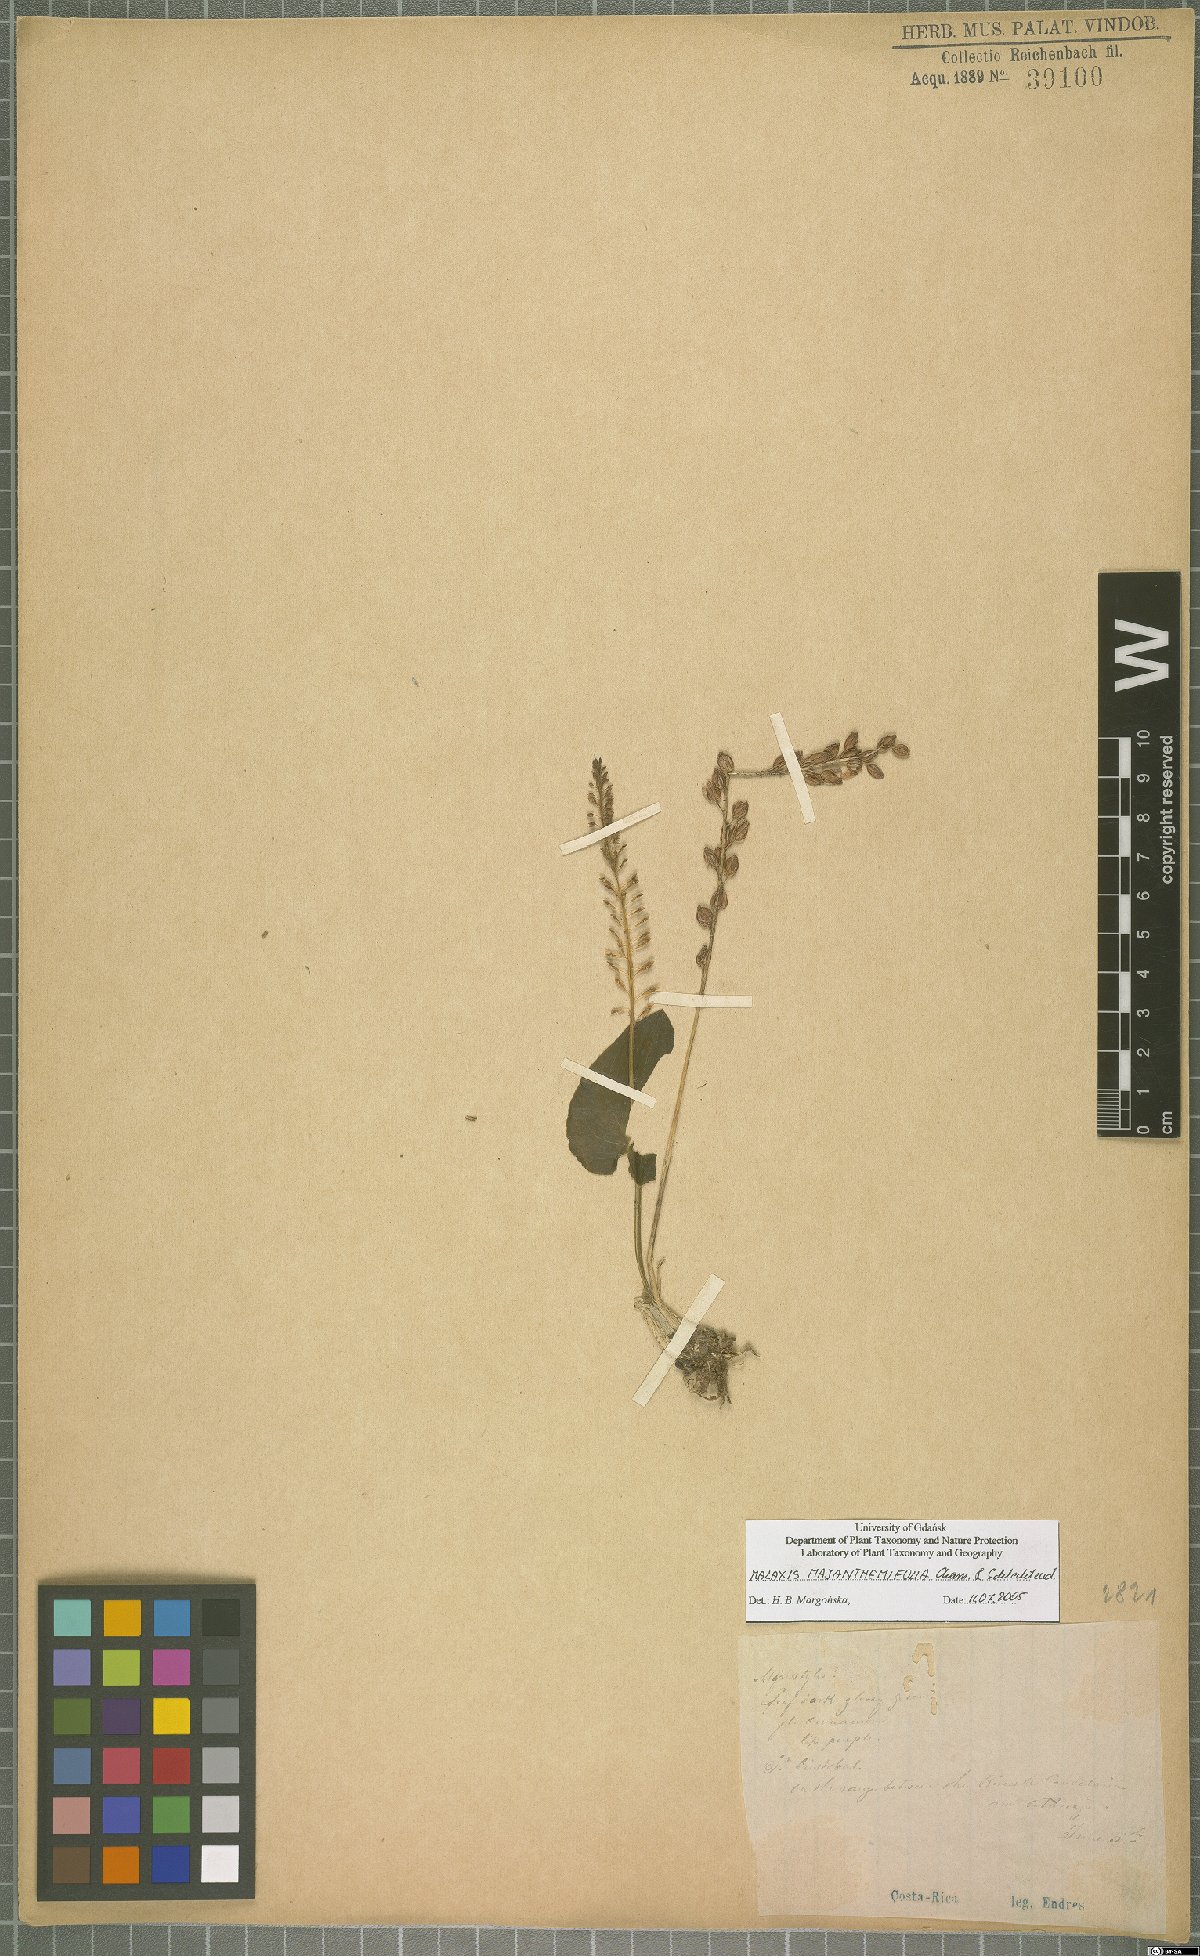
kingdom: Plantae
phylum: Tracheophyta
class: Liliopsida
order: Asparagales
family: Orchidaceae
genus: Malaxis
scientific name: Malaxis maianthemifolia
